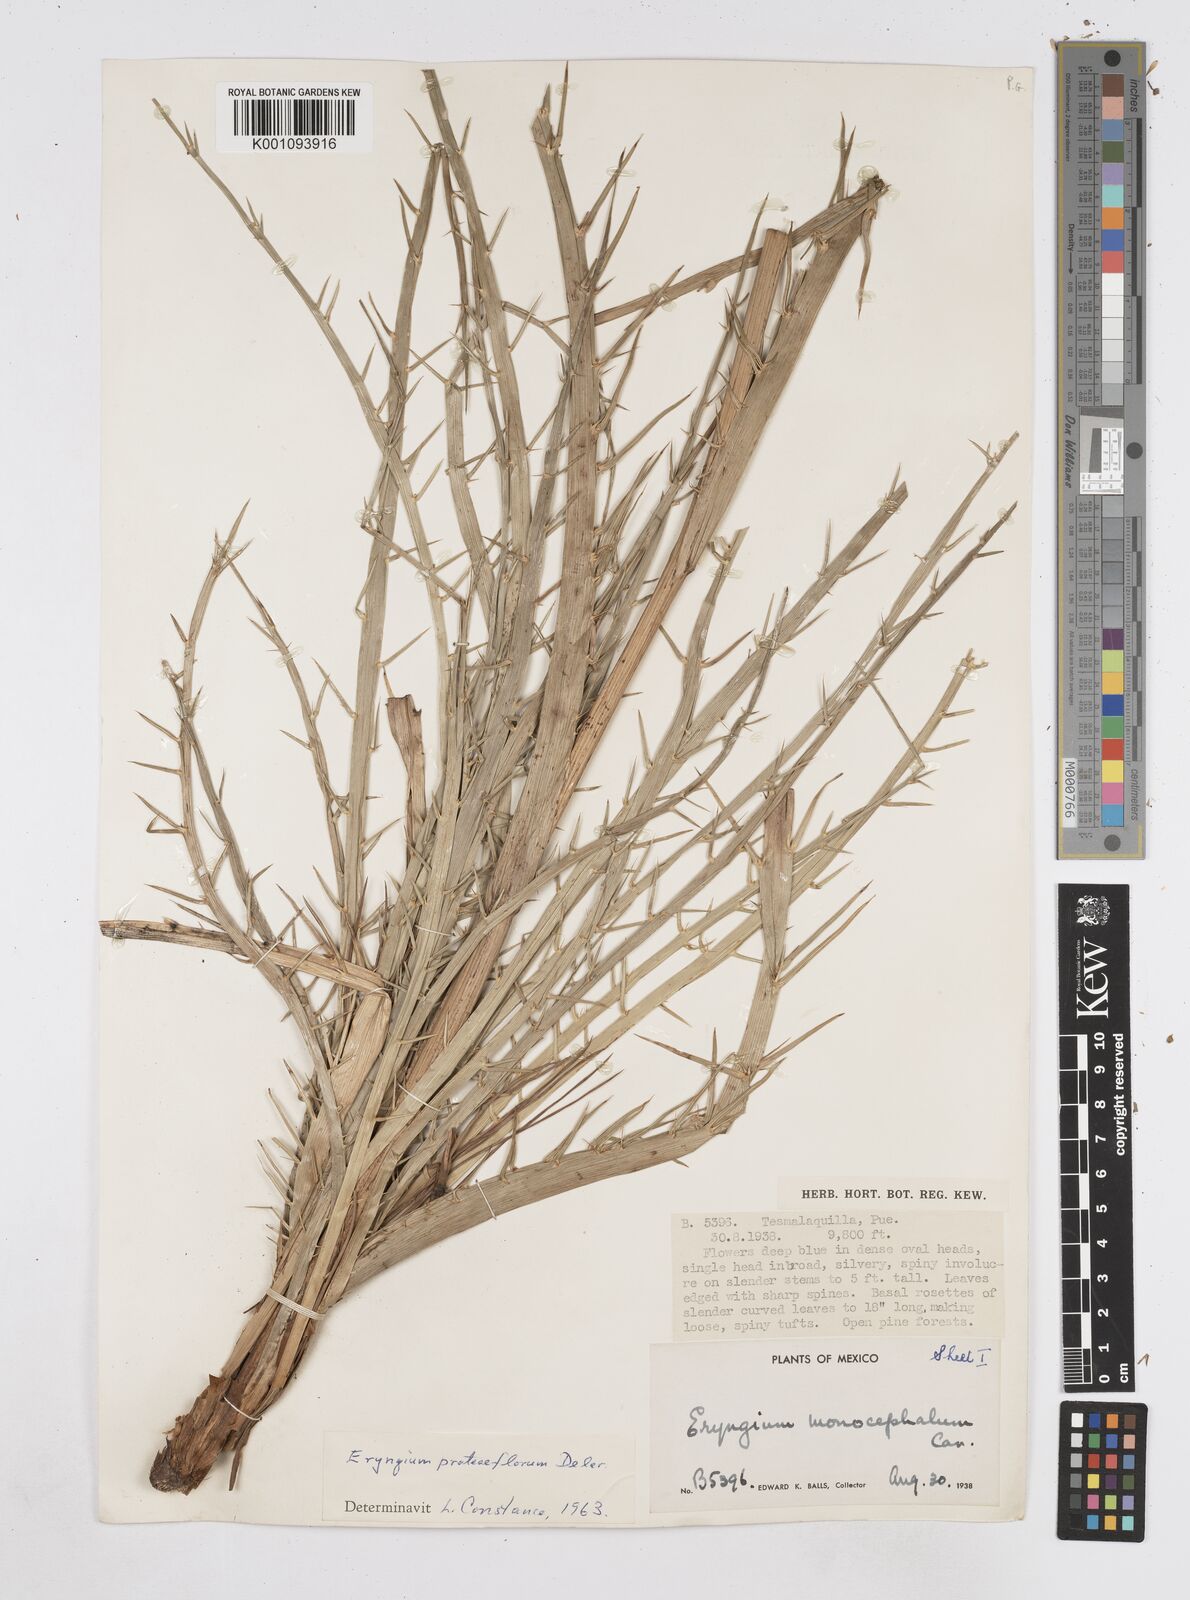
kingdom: Plantae
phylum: Tracheophyta
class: Magnoliopsida
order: Apiales
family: Apiaceae
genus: Eryngium
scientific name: Eryngium proteiflorum
